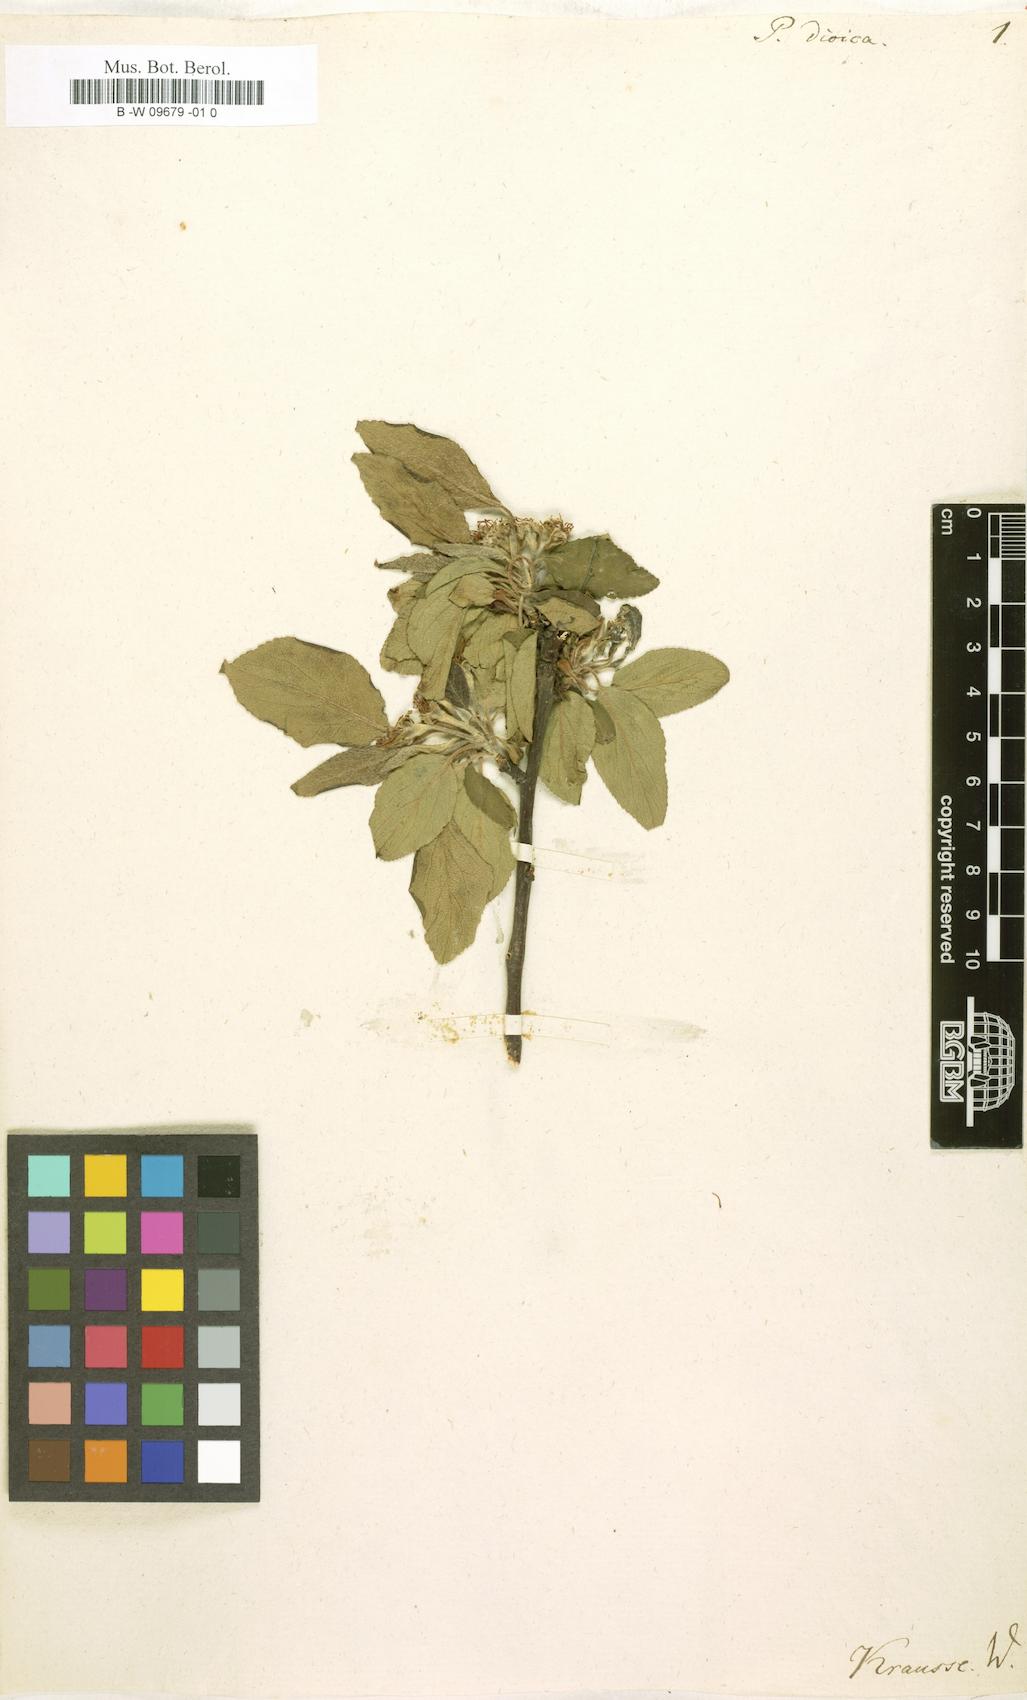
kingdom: Plantae
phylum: Tracheophyta
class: Magnoliopsida
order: Rosales
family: Rosaceae
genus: Malus
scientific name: Malus domestica
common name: Apple
